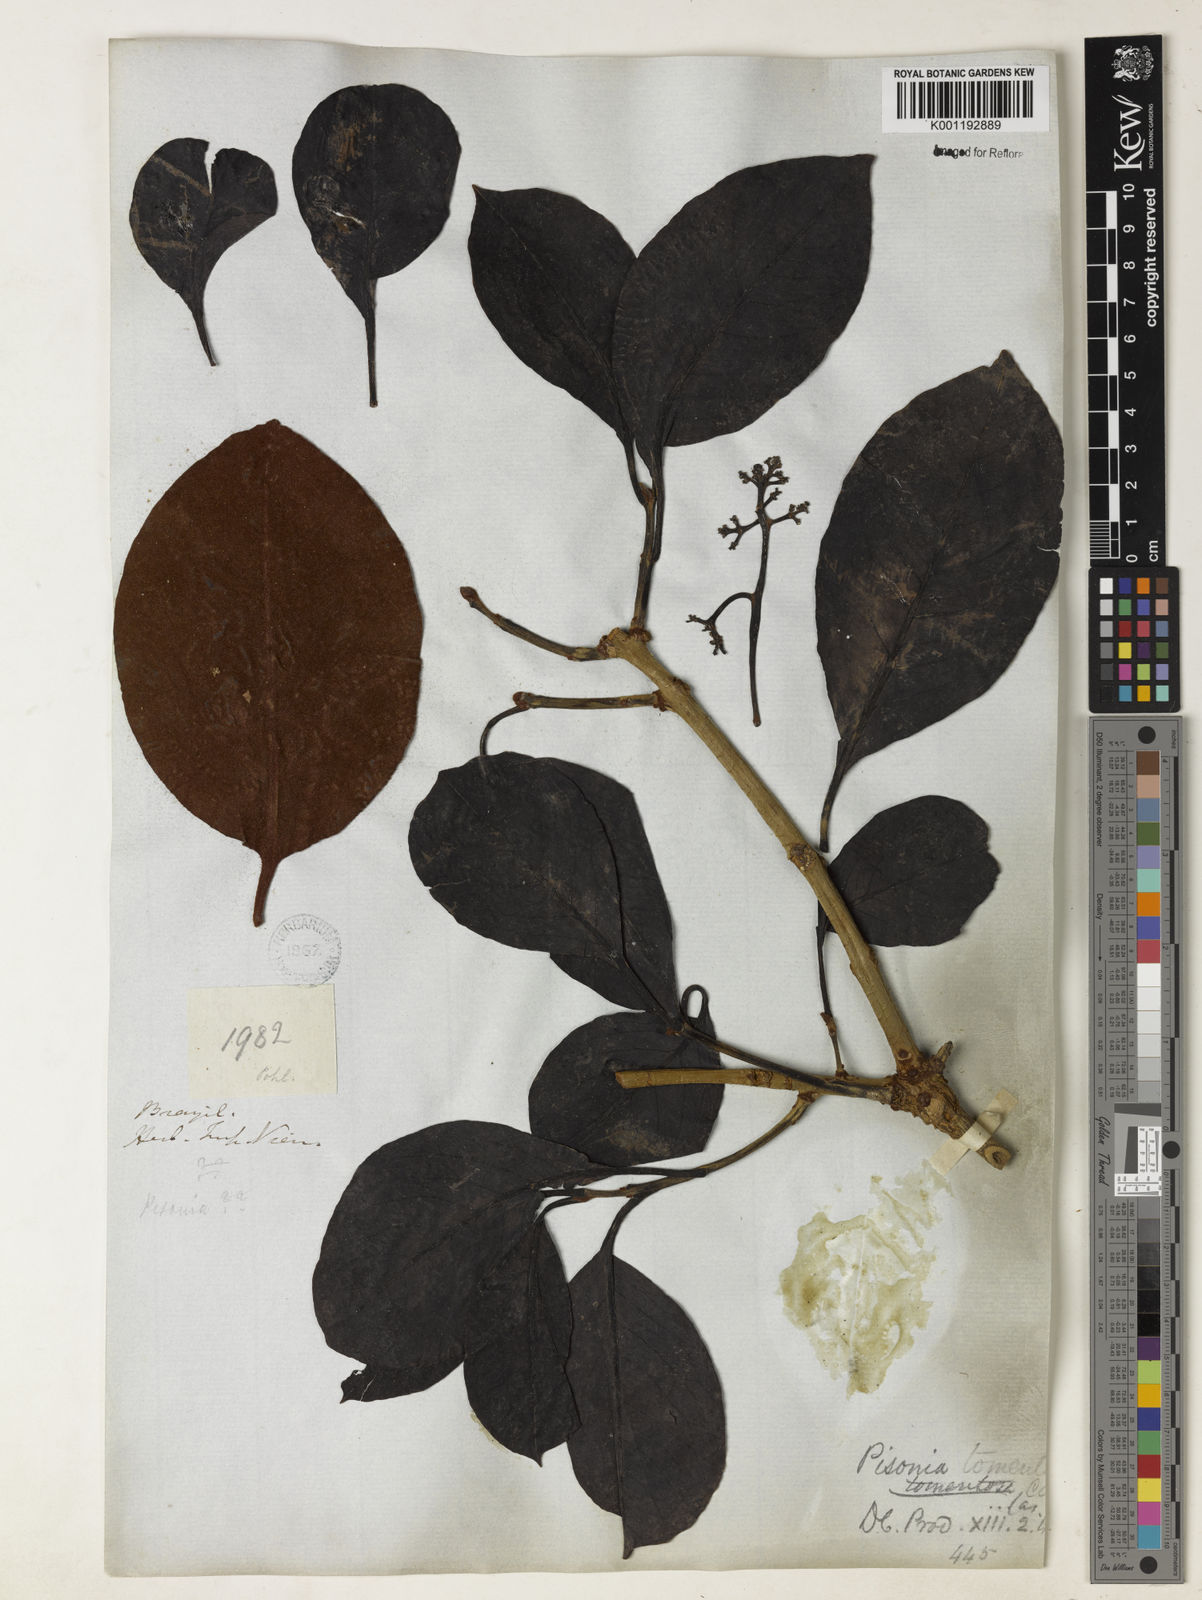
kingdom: Plantae
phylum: Tracheophyta
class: Magnoliopsida
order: Caryophyllales
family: Nyctaginaceae
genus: Guapira
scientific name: Guapira noxia
